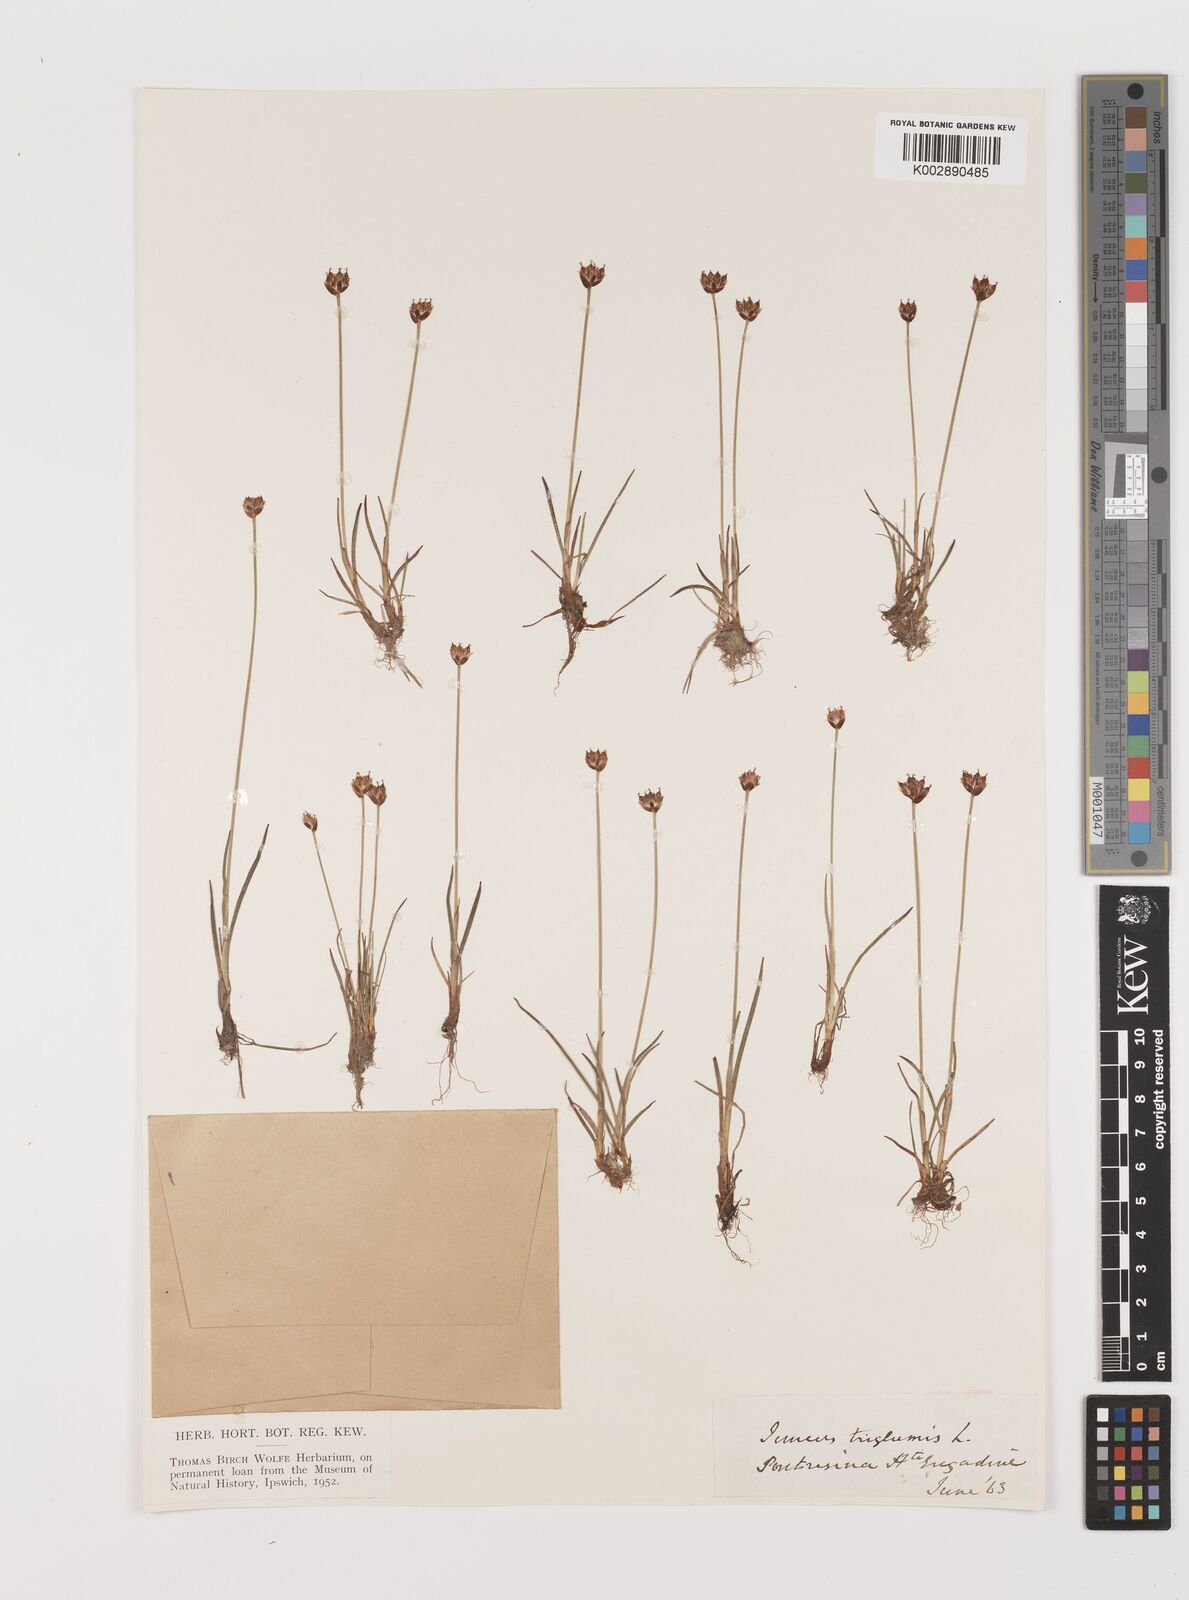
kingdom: Plantae
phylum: Tracheophyta
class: Liliopsida
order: Poales
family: Juncaceae
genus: Juncus
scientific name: Juncus triglumis
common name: Three-flowered rush
